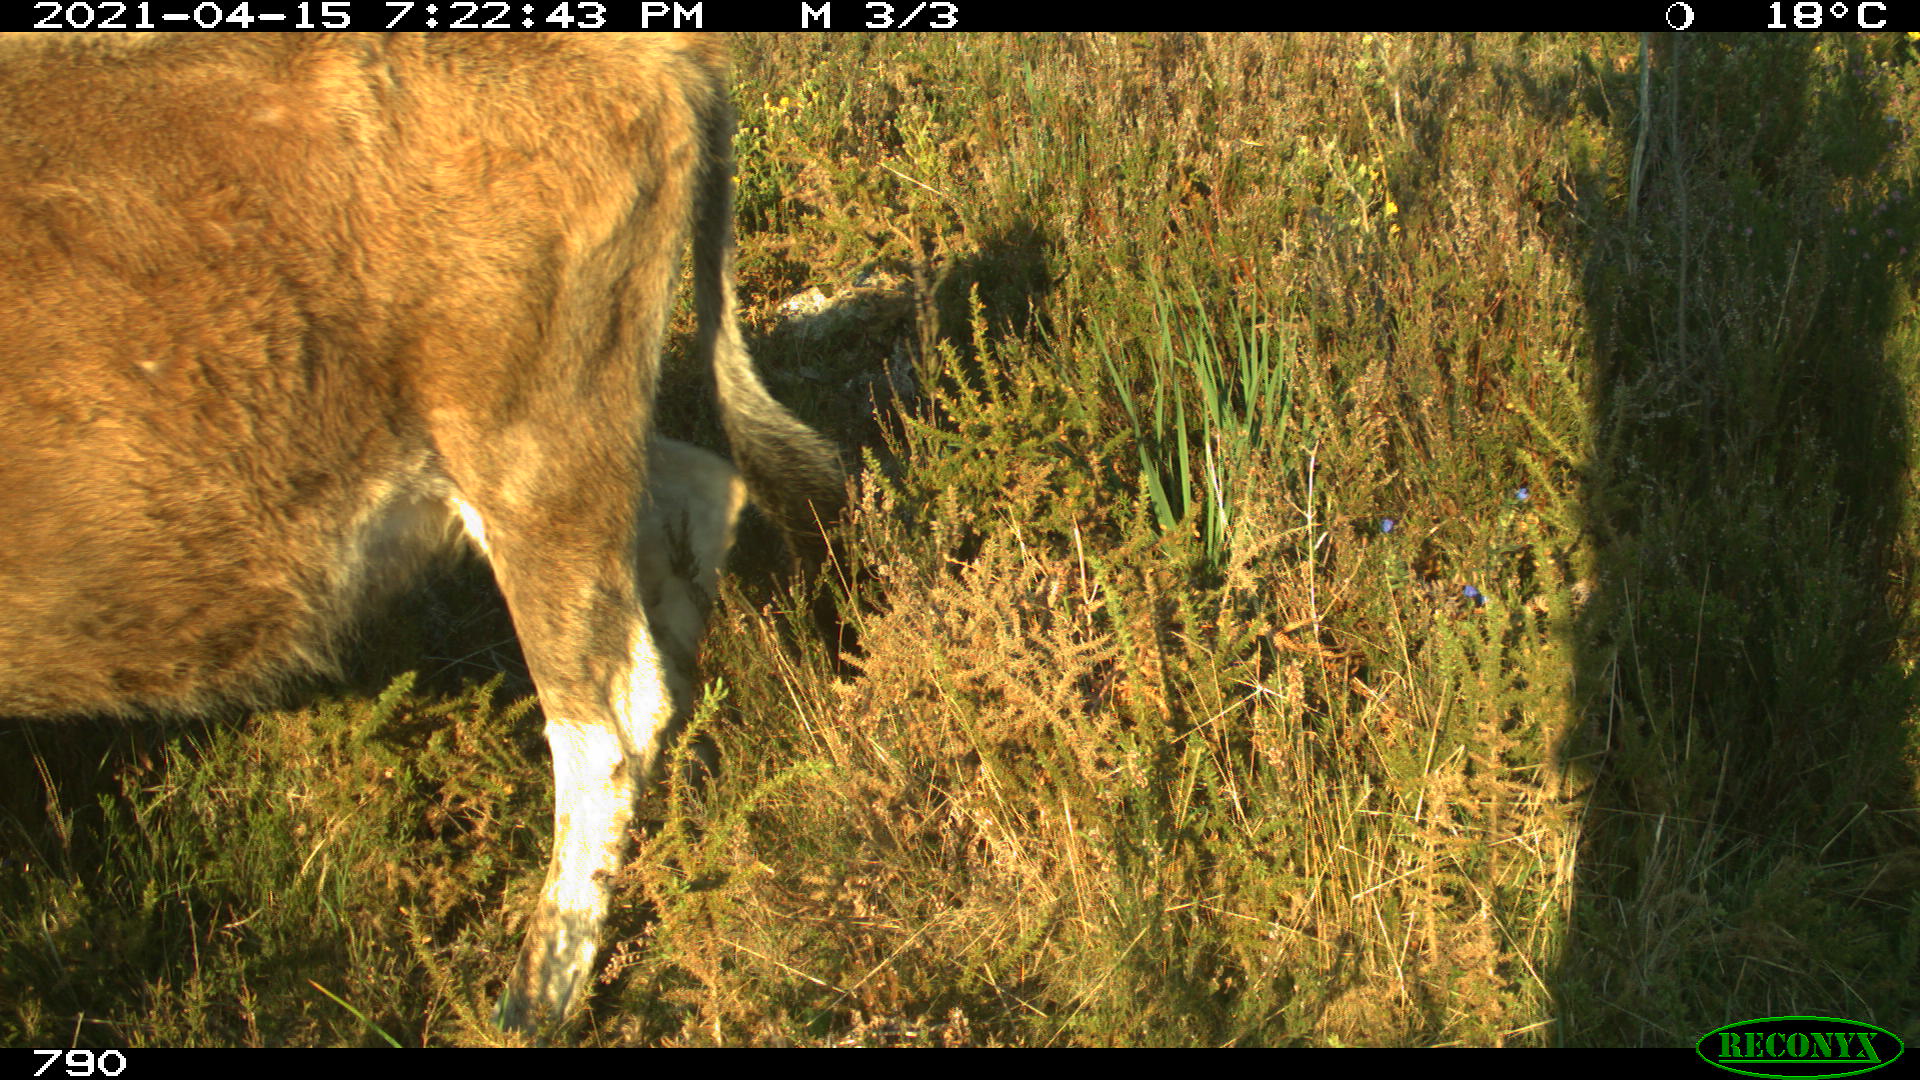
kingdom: Animalia
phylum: Chordata
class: Mammalia
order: Artiodactyla
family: Bovidae
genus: Bos
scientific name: Bos taurus
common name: Domesticated cattle
